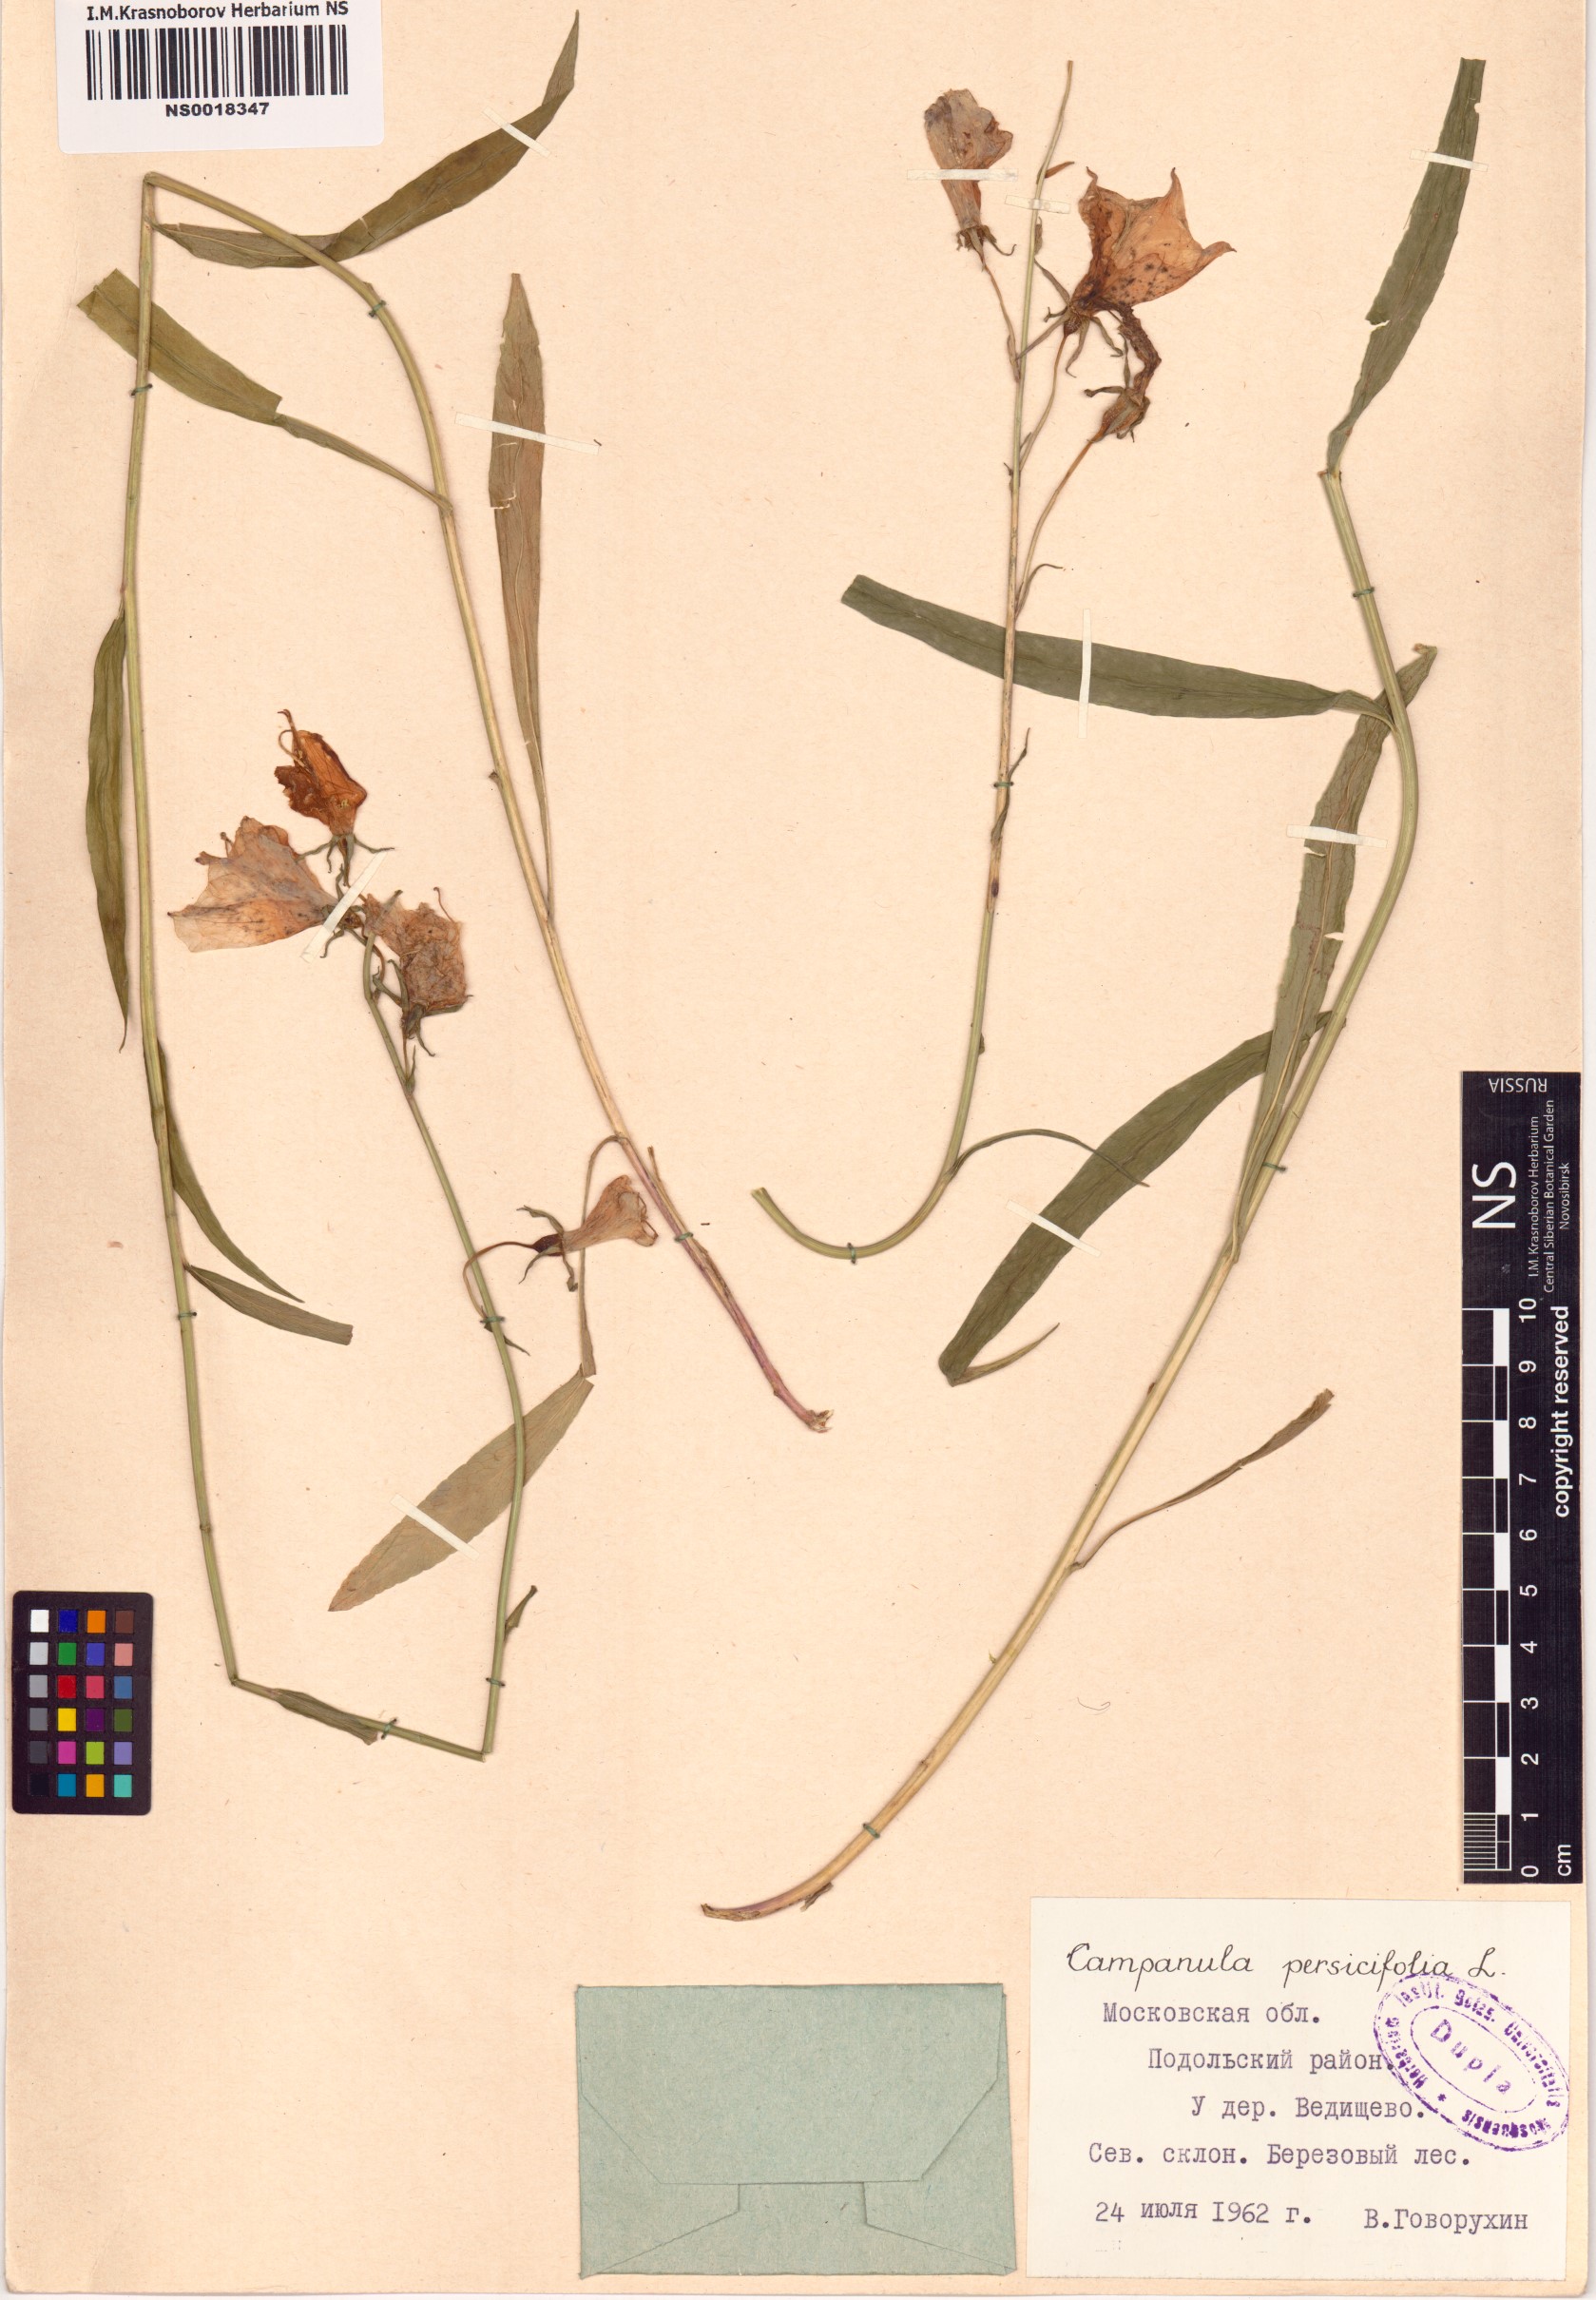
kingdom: Plantae
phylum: Tracheophyta
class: Magnoliopsida
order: Asterales
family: Campanulaceae
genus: Campanula
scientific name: Campanula persicifolia
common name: Peach-leaved bellflower
